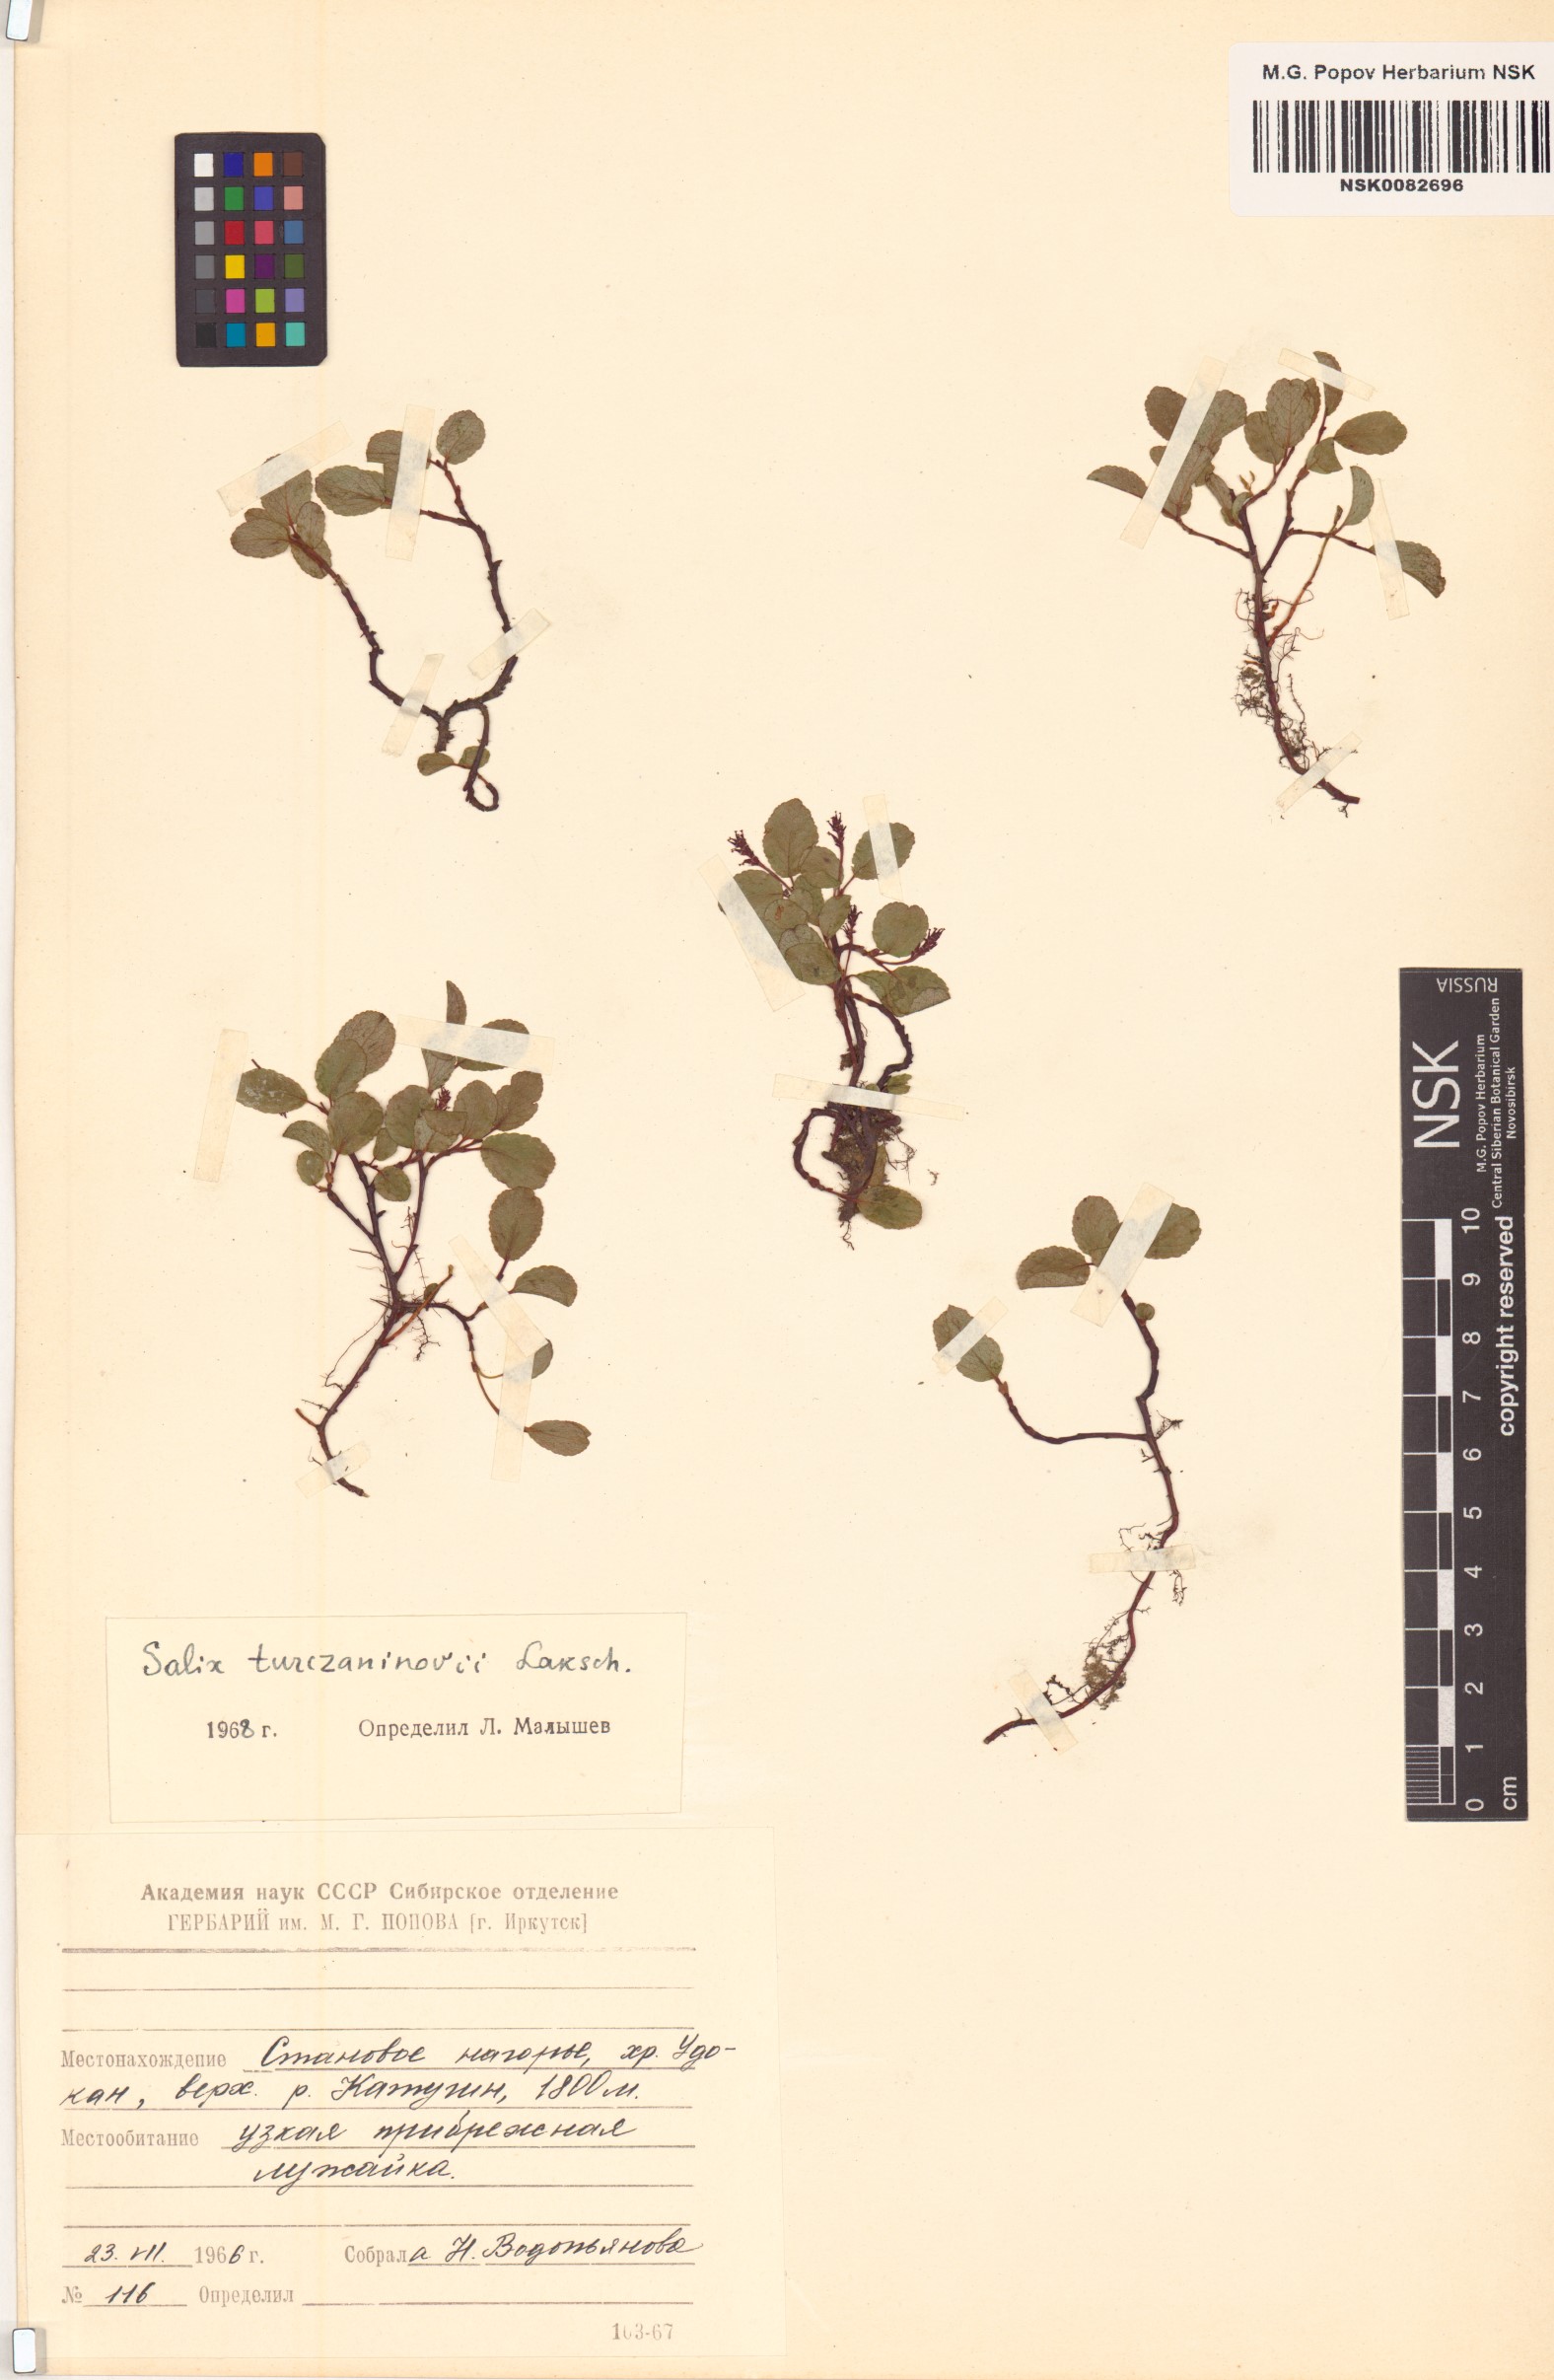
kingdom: Plantae
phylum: Tracheophyta
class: Magnoliopsida
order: Malpighiales
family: Salicaceae
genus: Salix
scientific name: Salix turczaninowii
